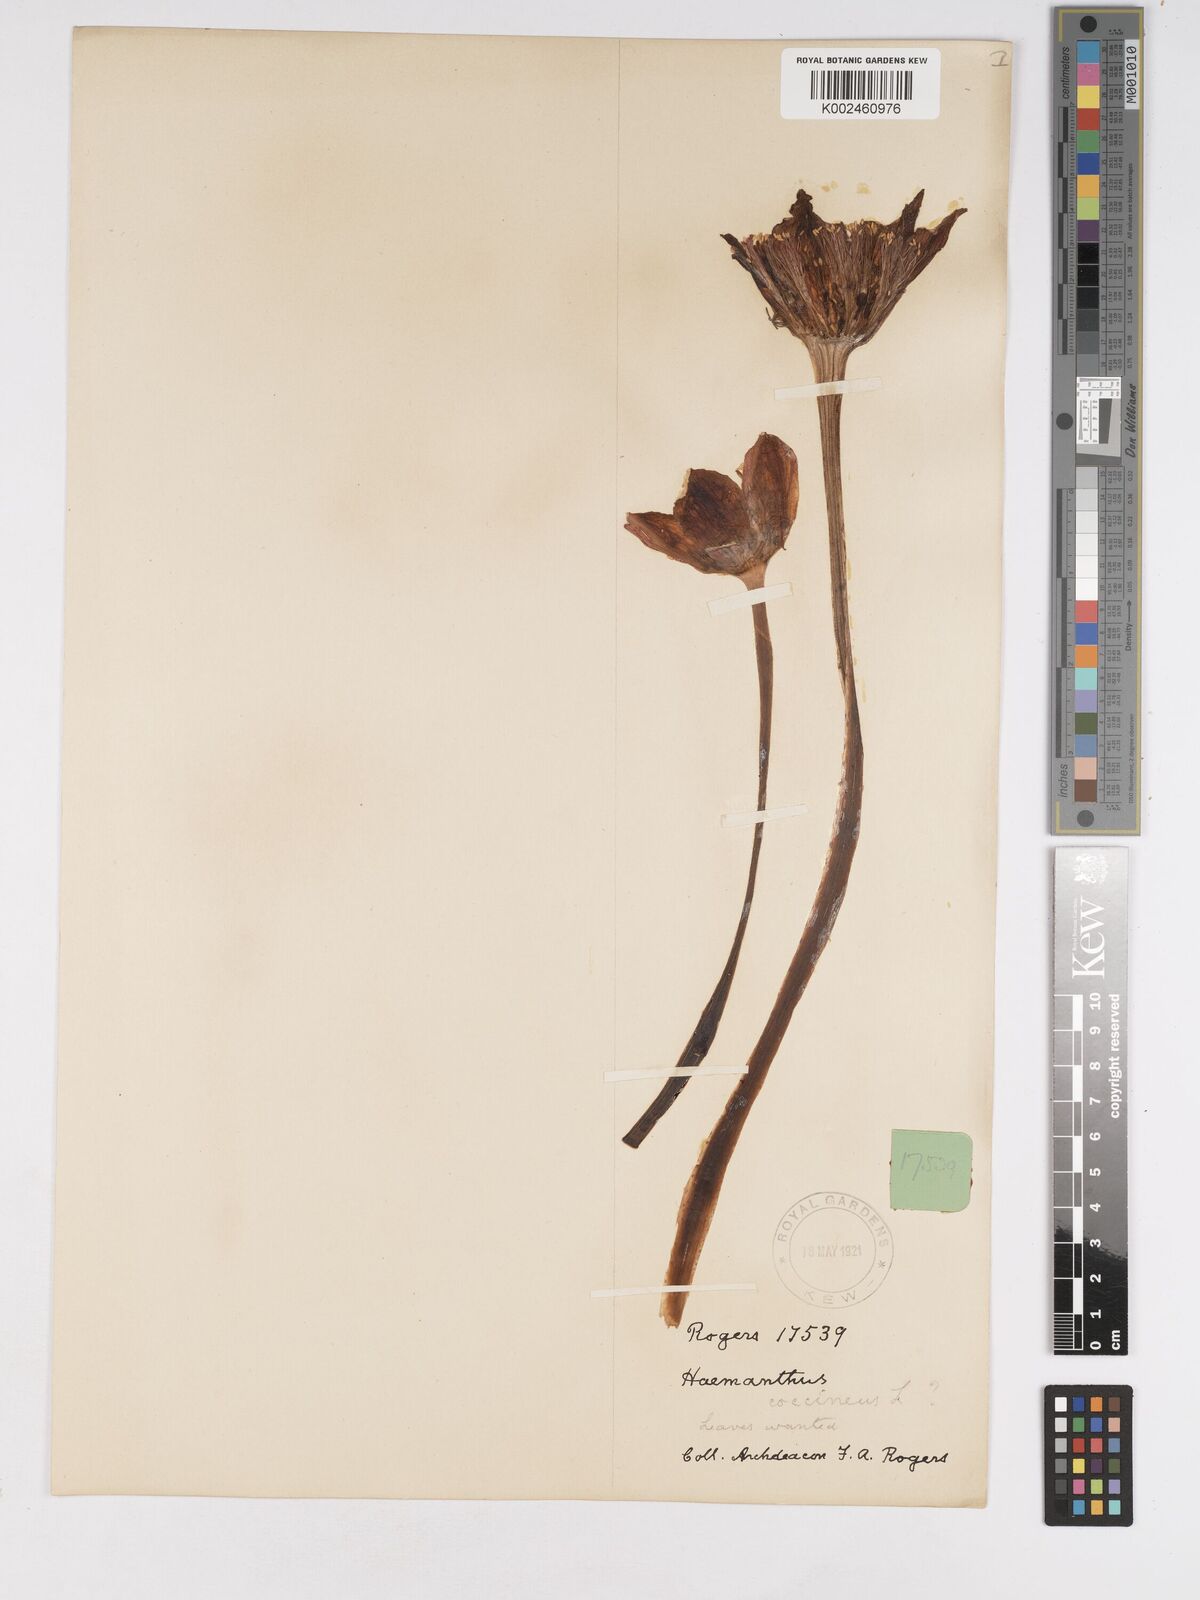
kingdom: Plantae
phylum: Tracheophyta
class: Liliopsida
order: Asparagales
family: Amaryllidaceae
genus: Haemanthus
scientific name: Haemanthus coccineus
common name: Cape-tulip
